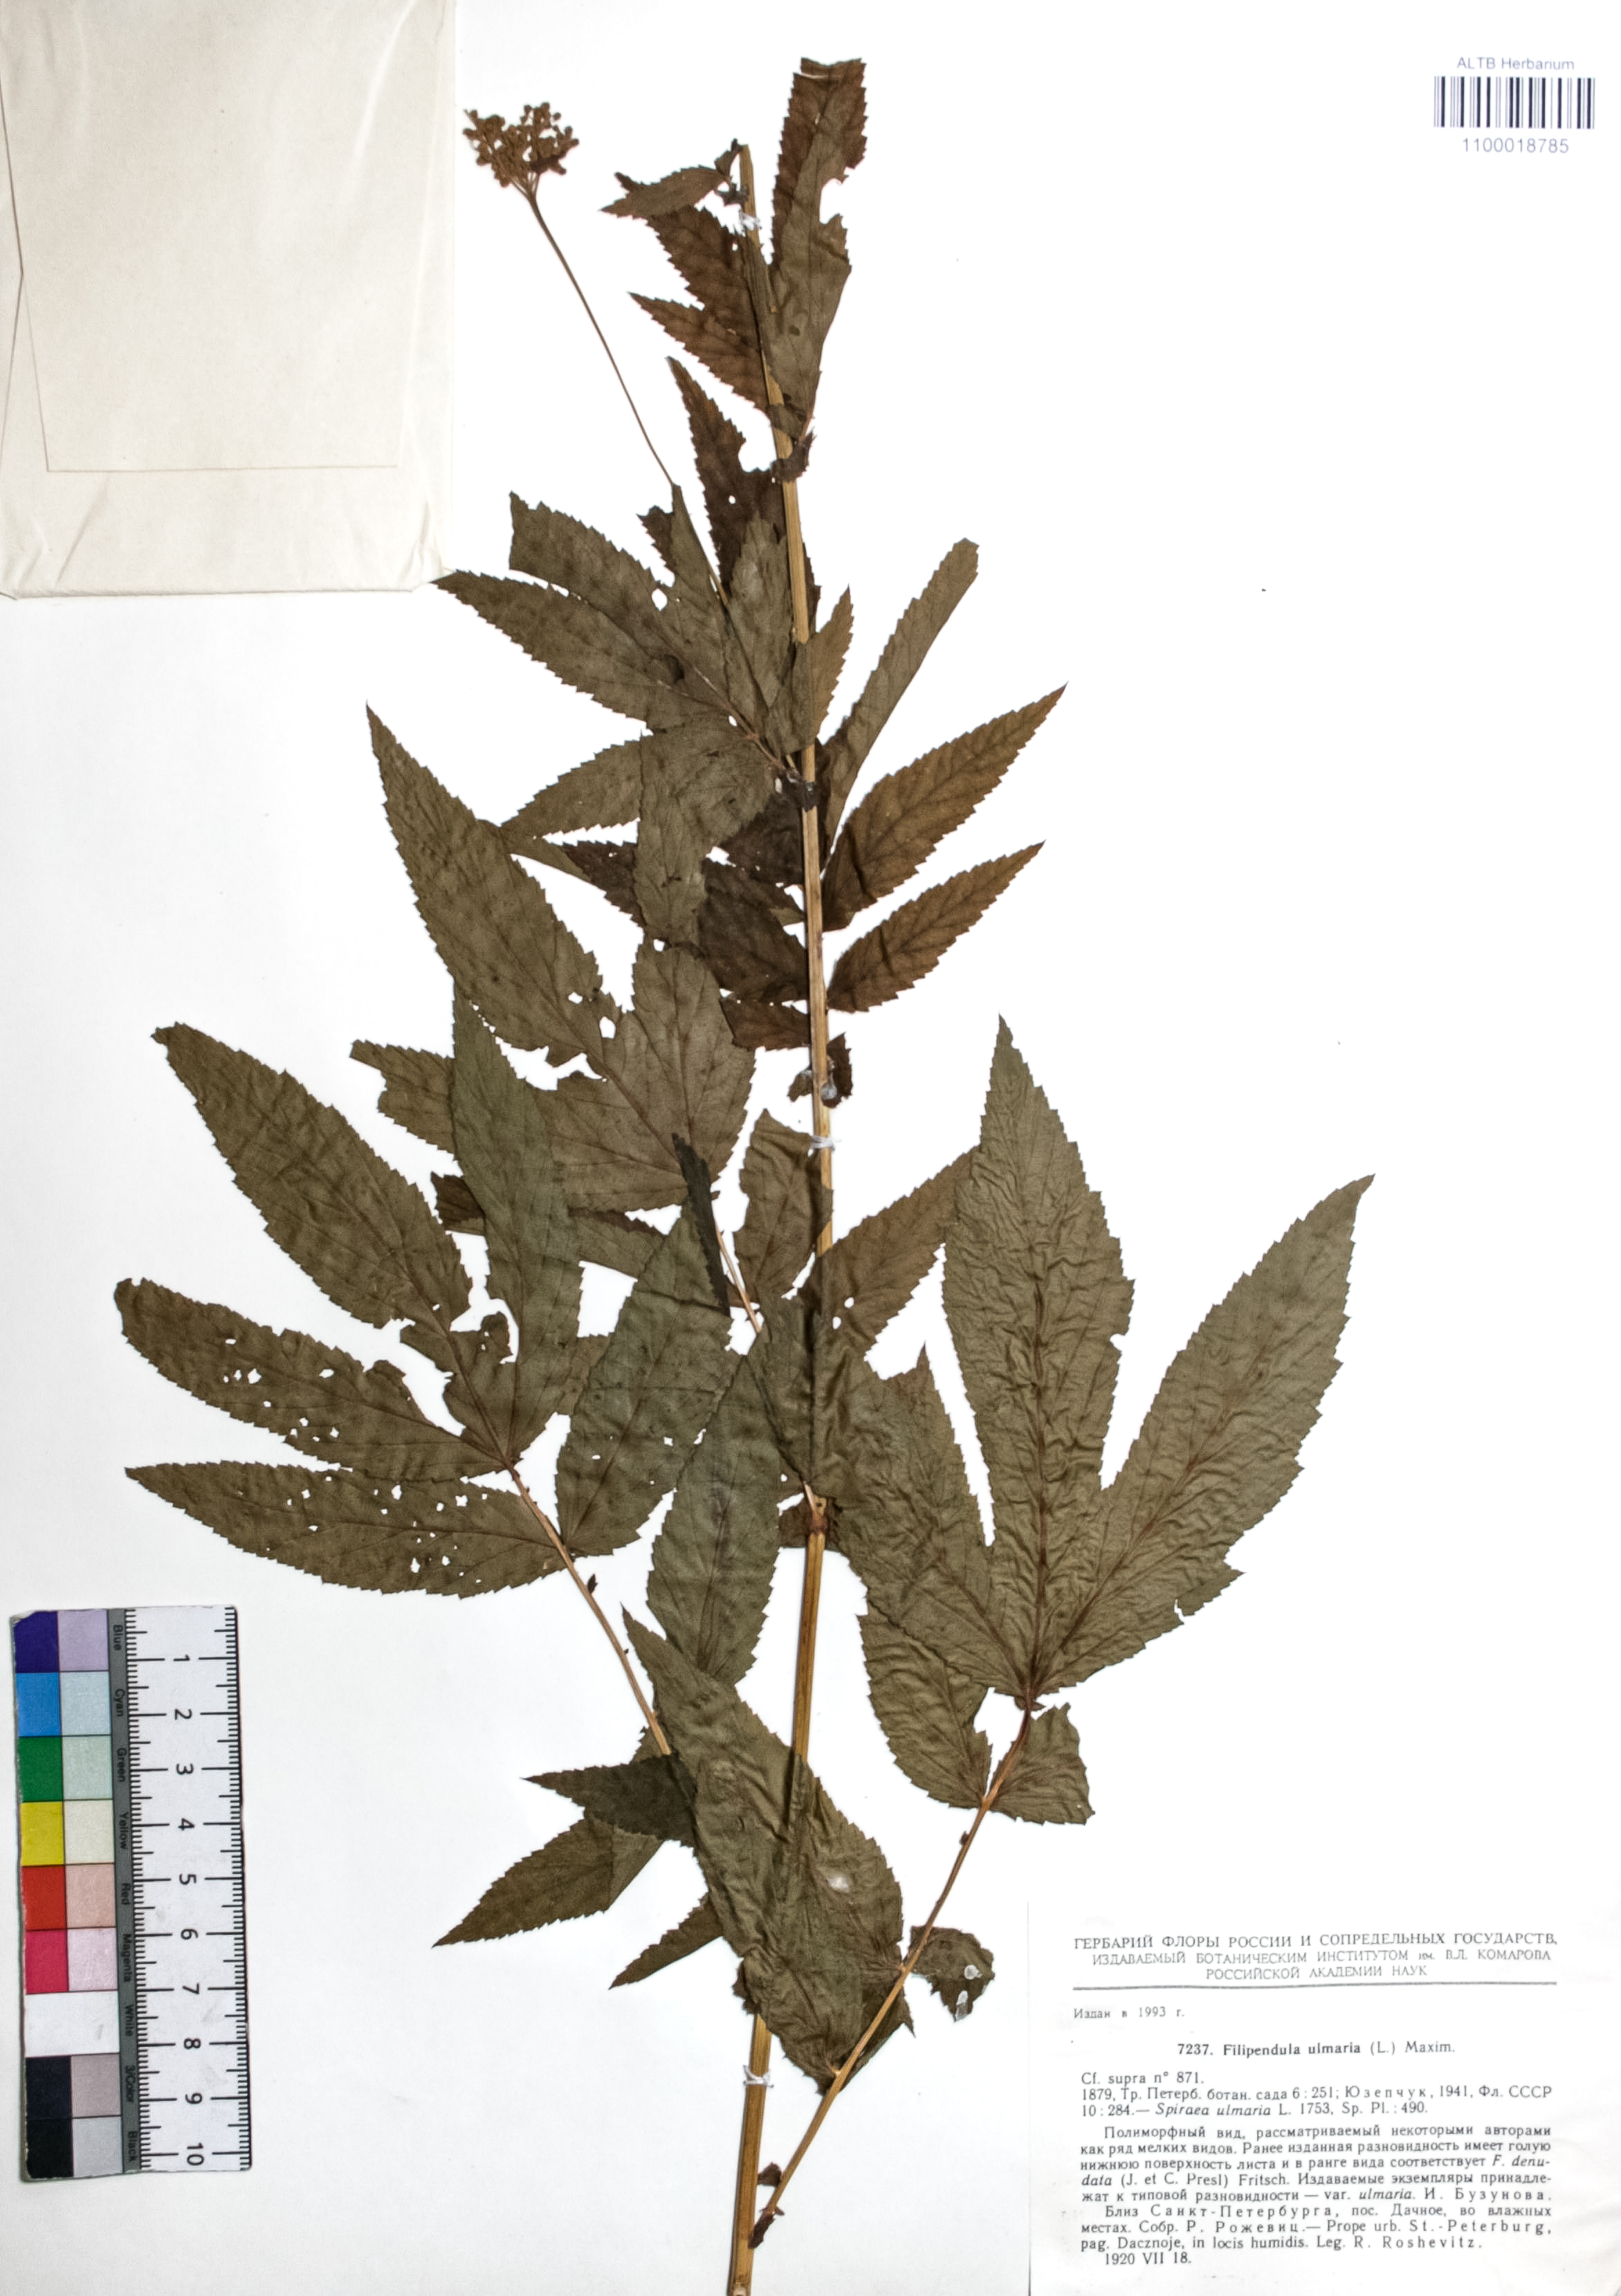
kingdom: Plantae
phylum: Tracheophyta
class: Magnoliopsida
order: Rosales
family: Rosaceae
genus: Filipendula
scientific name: Filipendula ulmaria
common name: Meadowsweet
